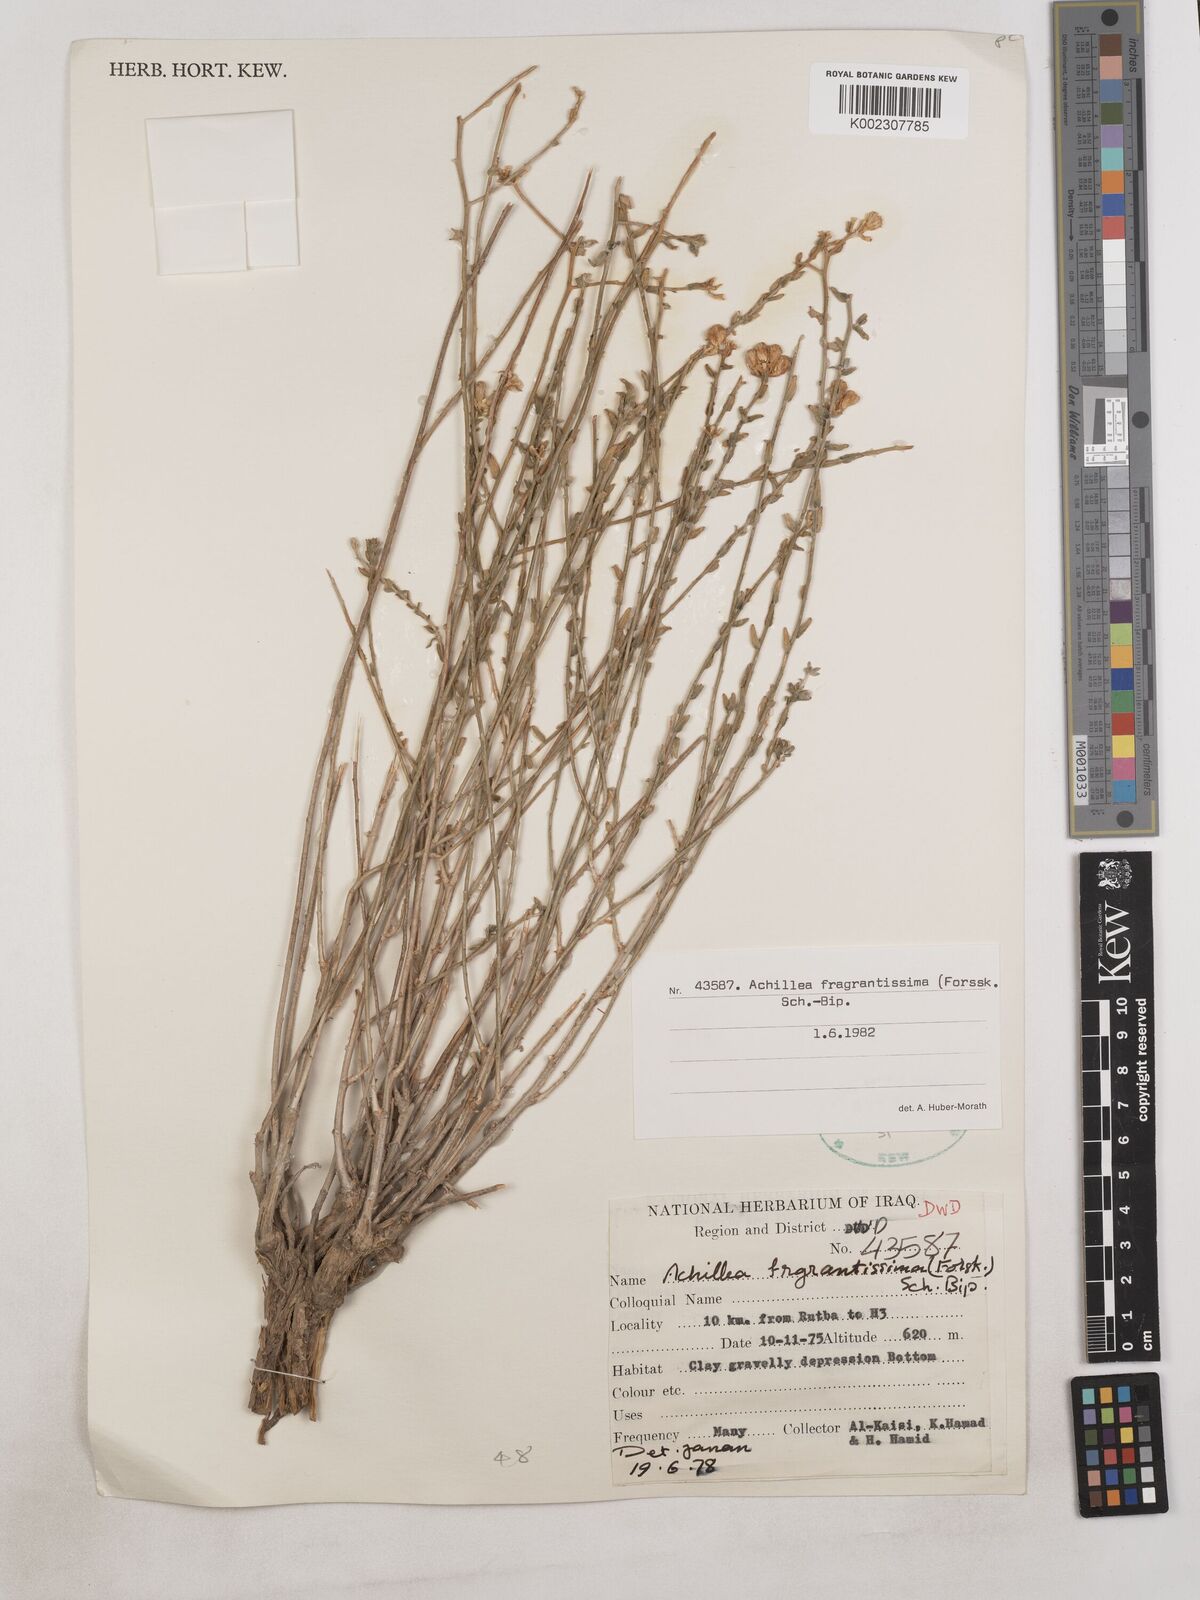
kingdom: Plantae
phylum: Tracheophyta
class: Magnoliopsida
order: Asterales
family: Asteraceae
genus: Achillea
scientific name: Achillea fragrantissima
